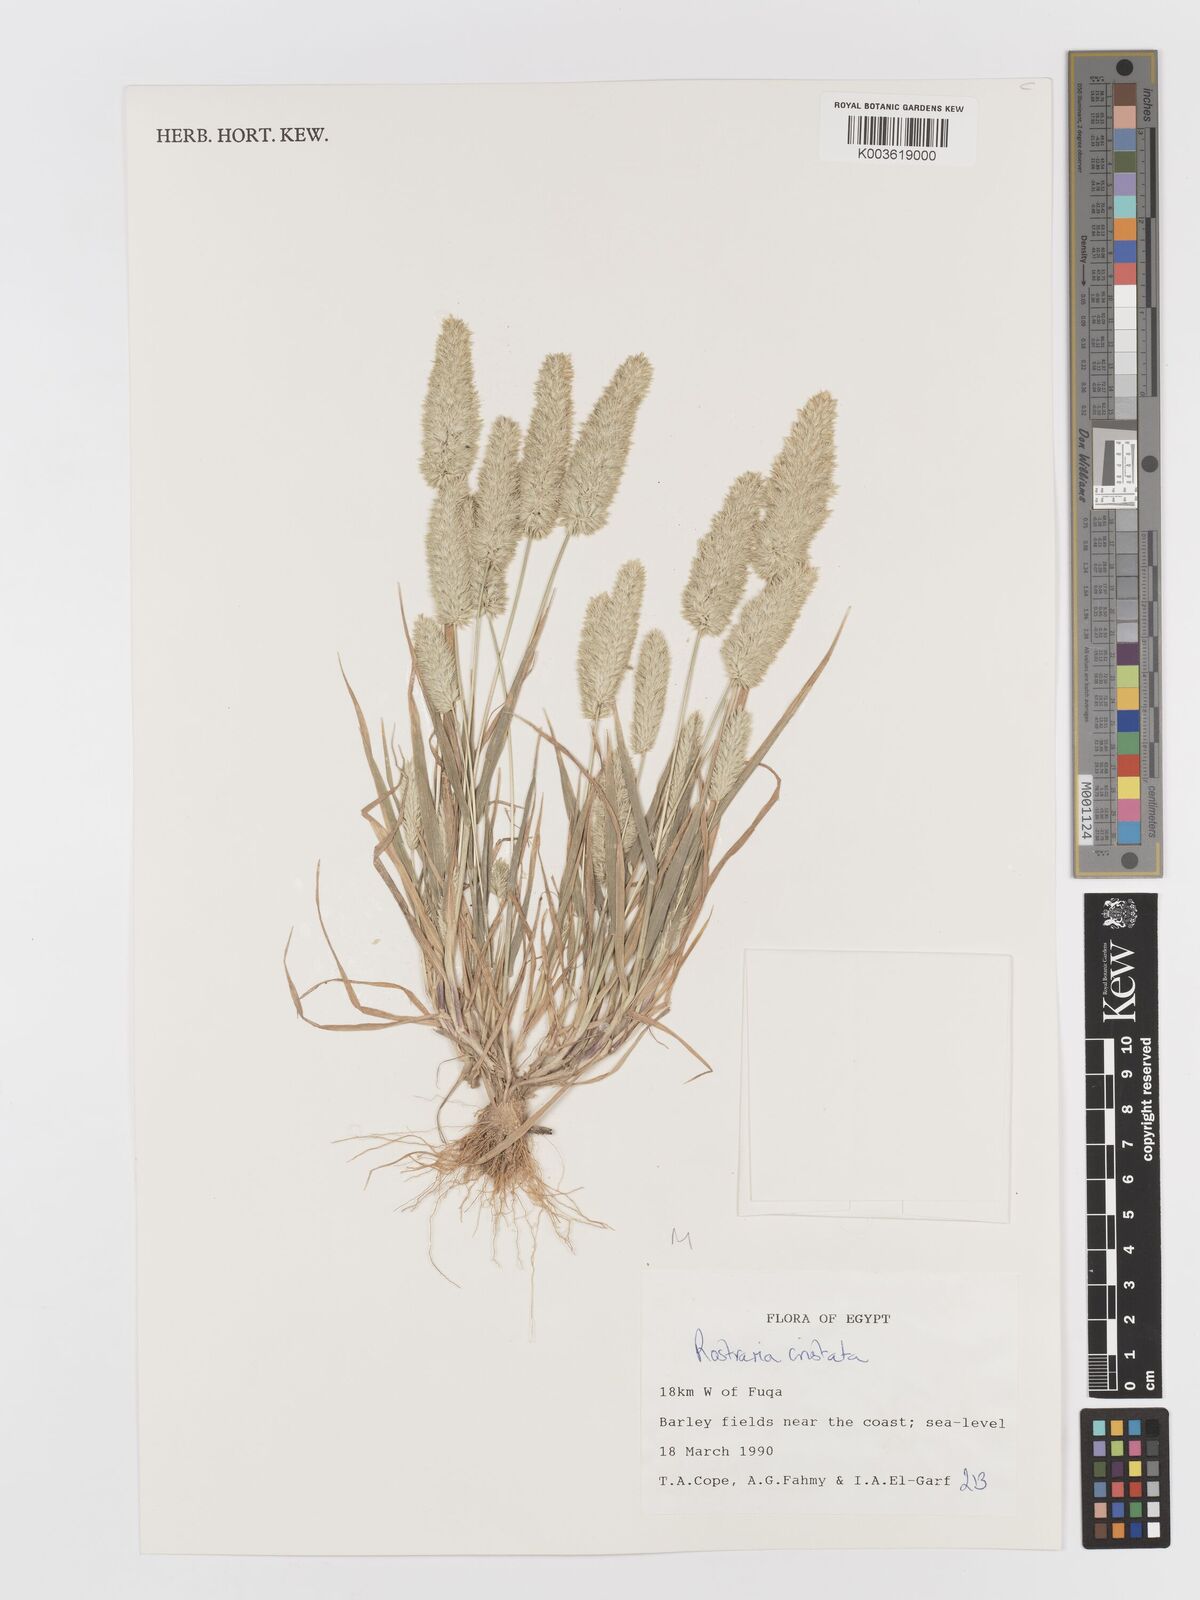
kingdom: Plantae
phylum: Tracheophyta
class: Liliopsida
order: Poales
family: Poaceae
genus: Rostraria
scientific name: Rostraria cristata
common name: Mediterranean hair-grass
